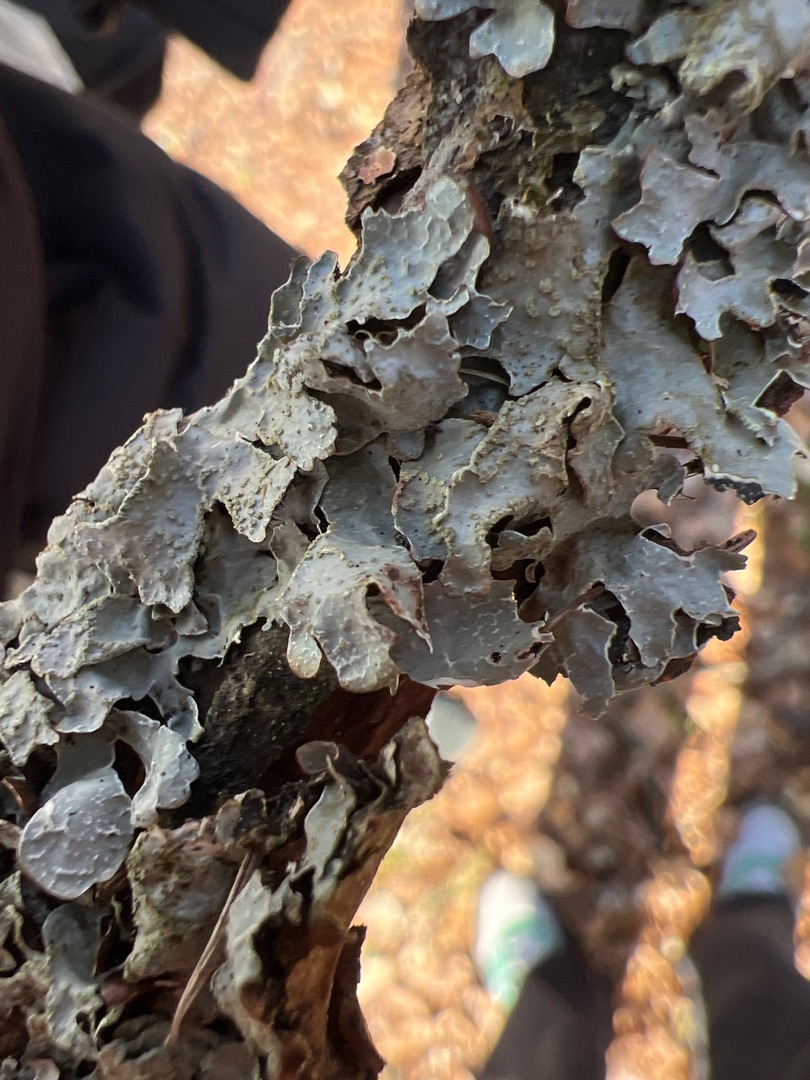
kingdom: Fungi
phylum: Ascomycota
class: Lecanoromycetes
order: Lecanorales
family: Parmeliaceae
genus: Parmelia
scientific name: Parmelia sulcata
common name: Rynket skållav
